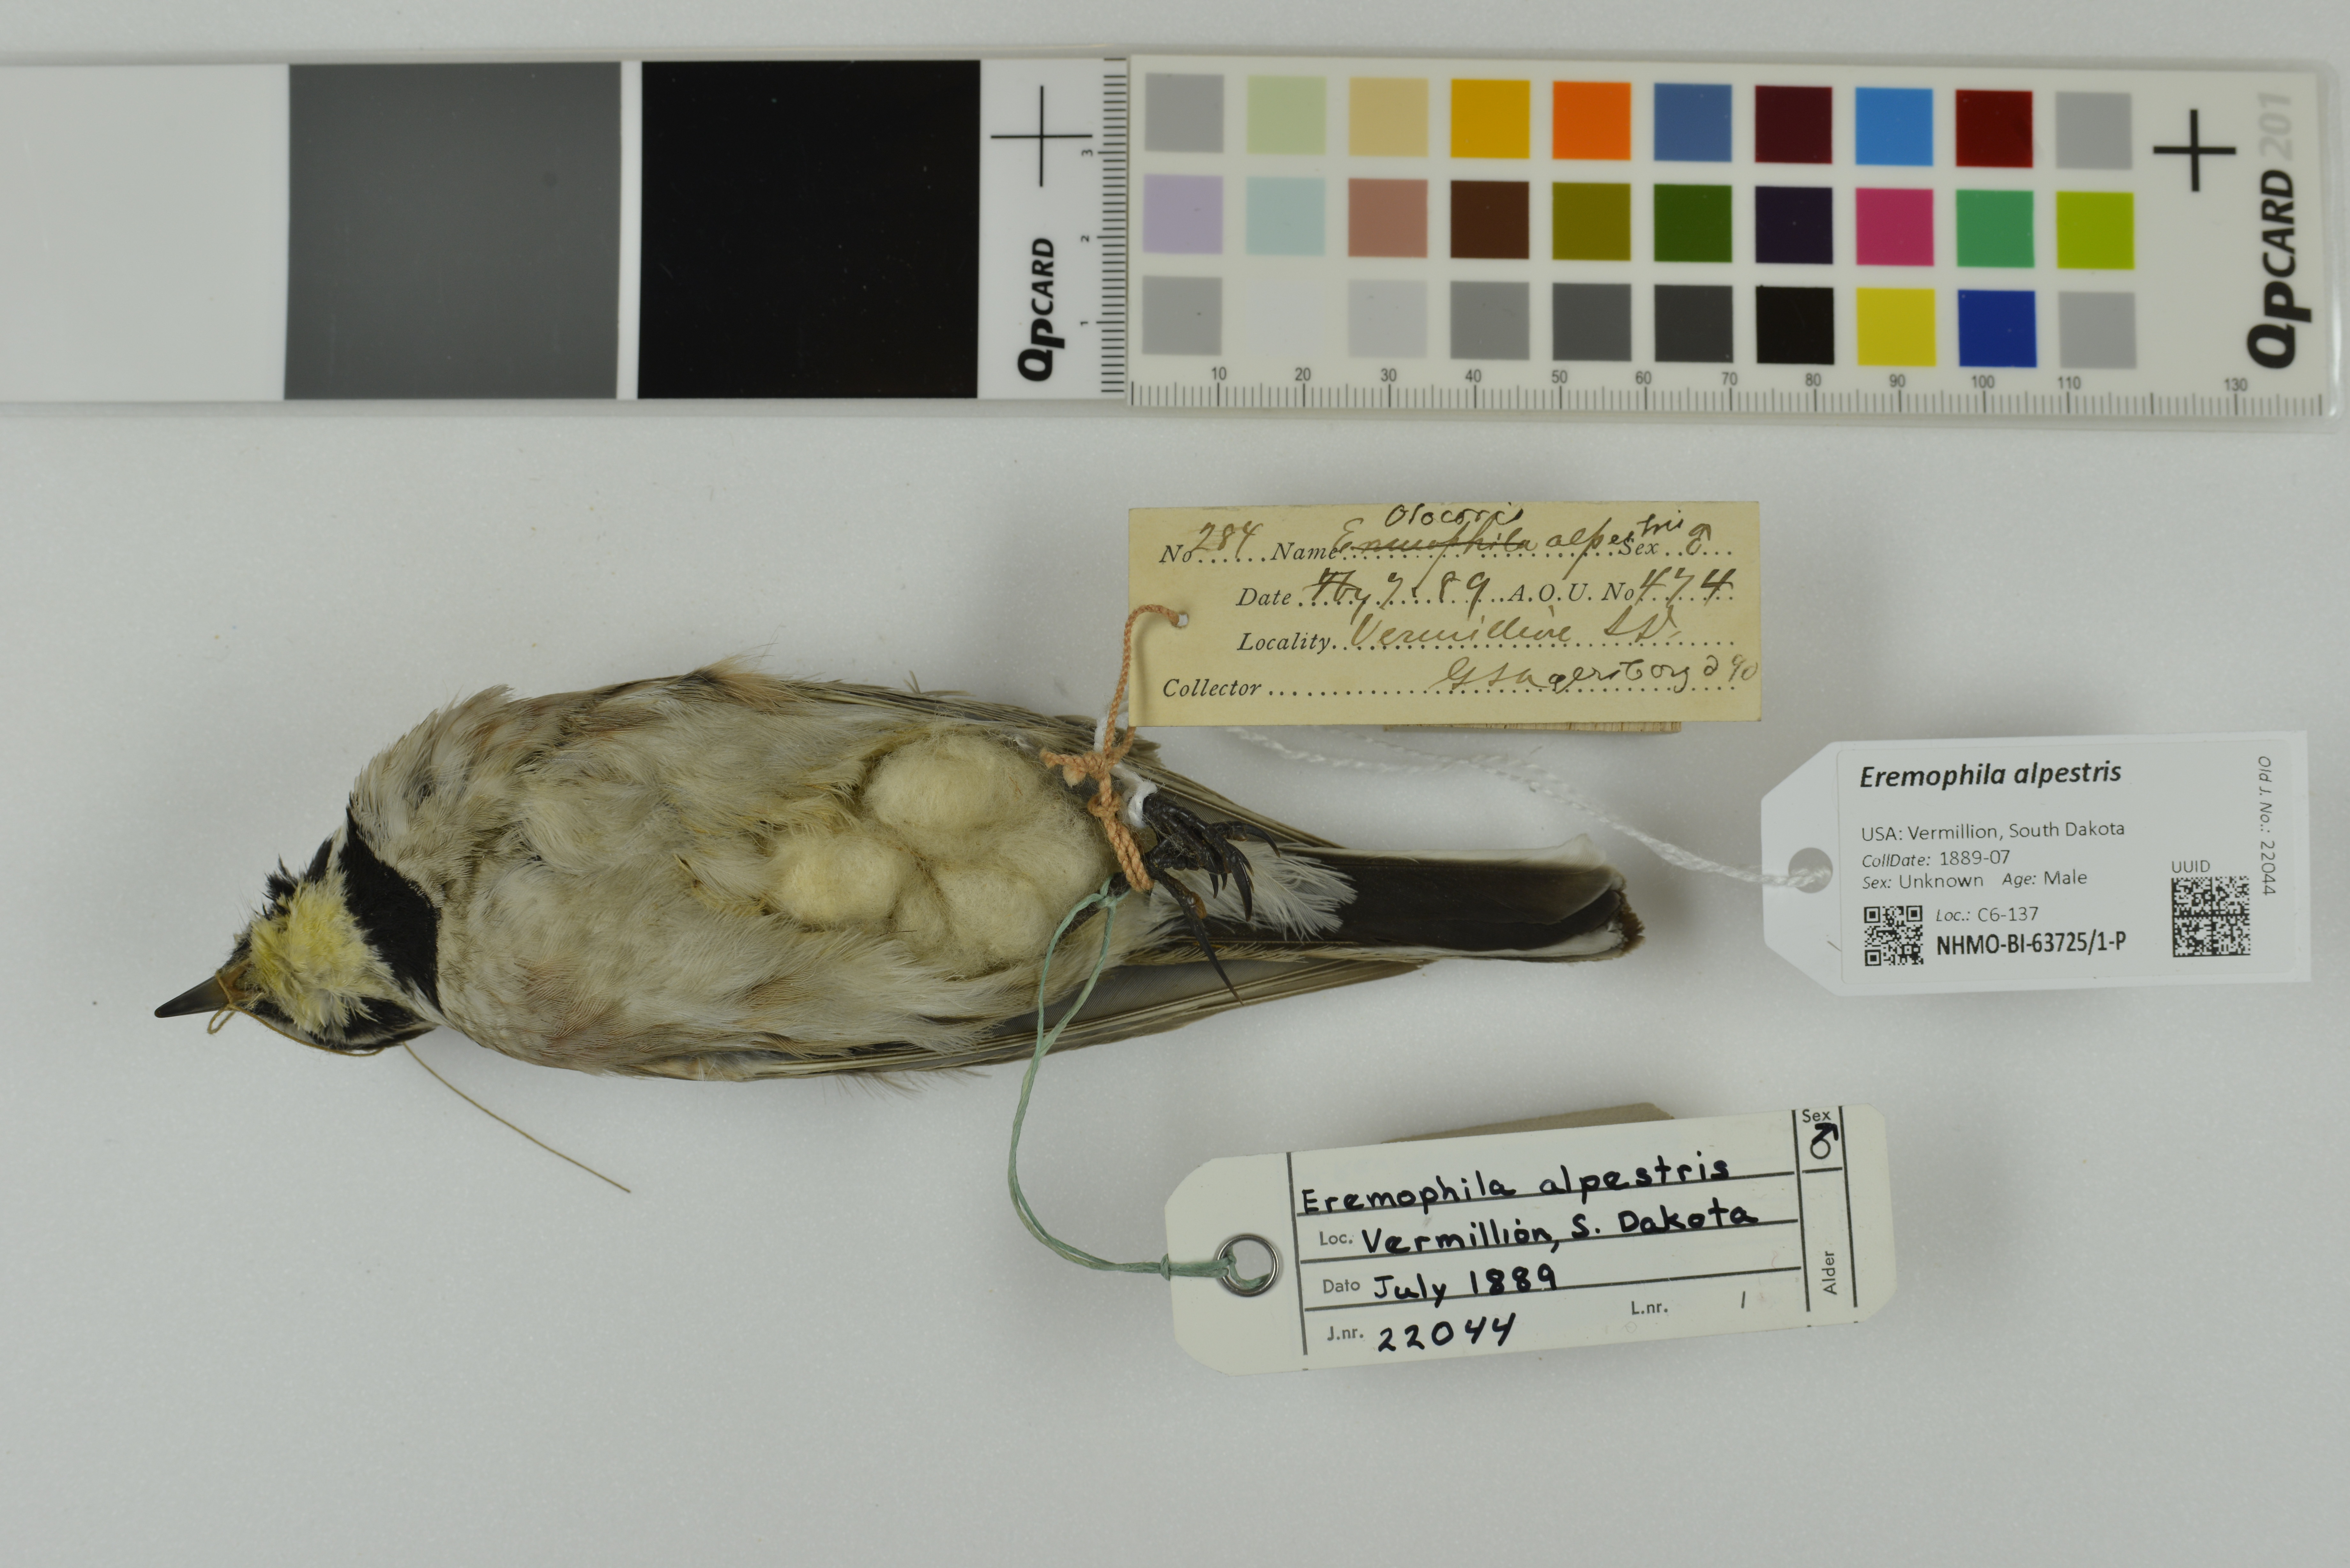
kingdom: Animalia
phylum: Chordata
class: Aves
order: Passeriformes
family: Alaudidae
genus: Eremophila
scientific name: Eremophila alpestris
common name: Horned lark
